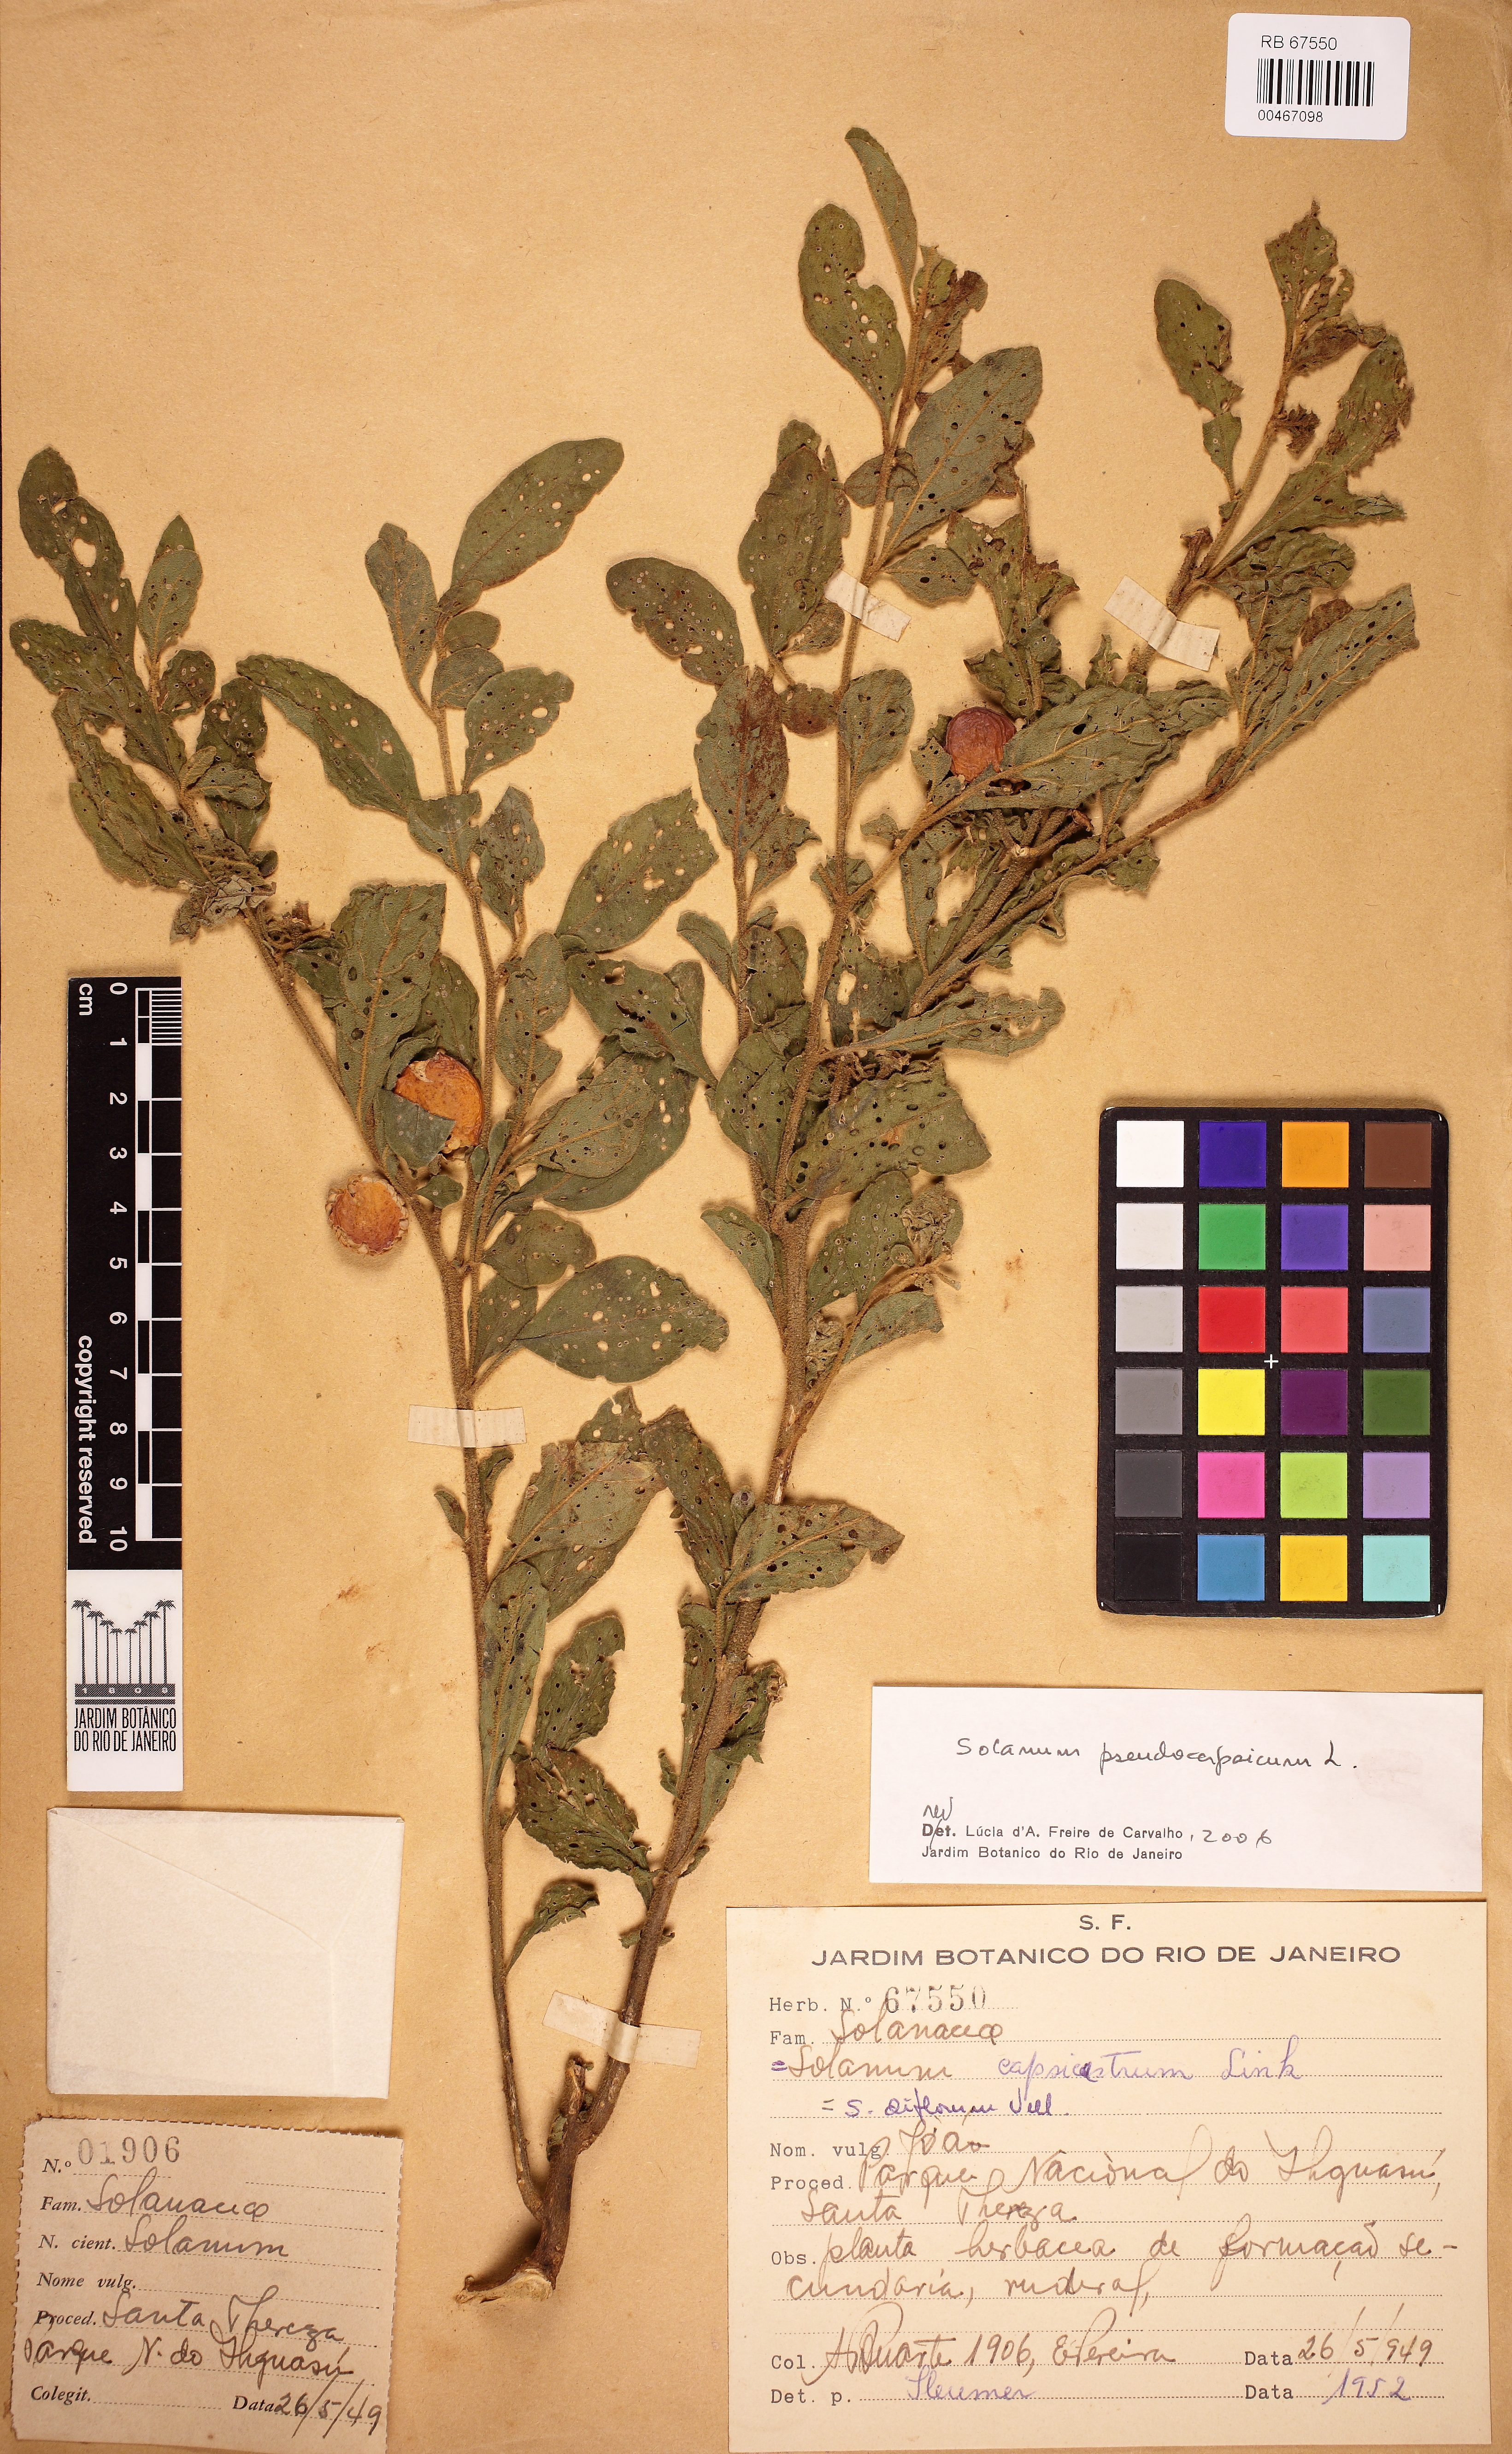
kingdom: Plantae
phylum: Tracheophyta
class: Magnoliopsida
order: Solanales
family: Solanaceae
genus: Solanum
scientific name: Solanum pseudocapsicum
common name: Jerusalem cherry
